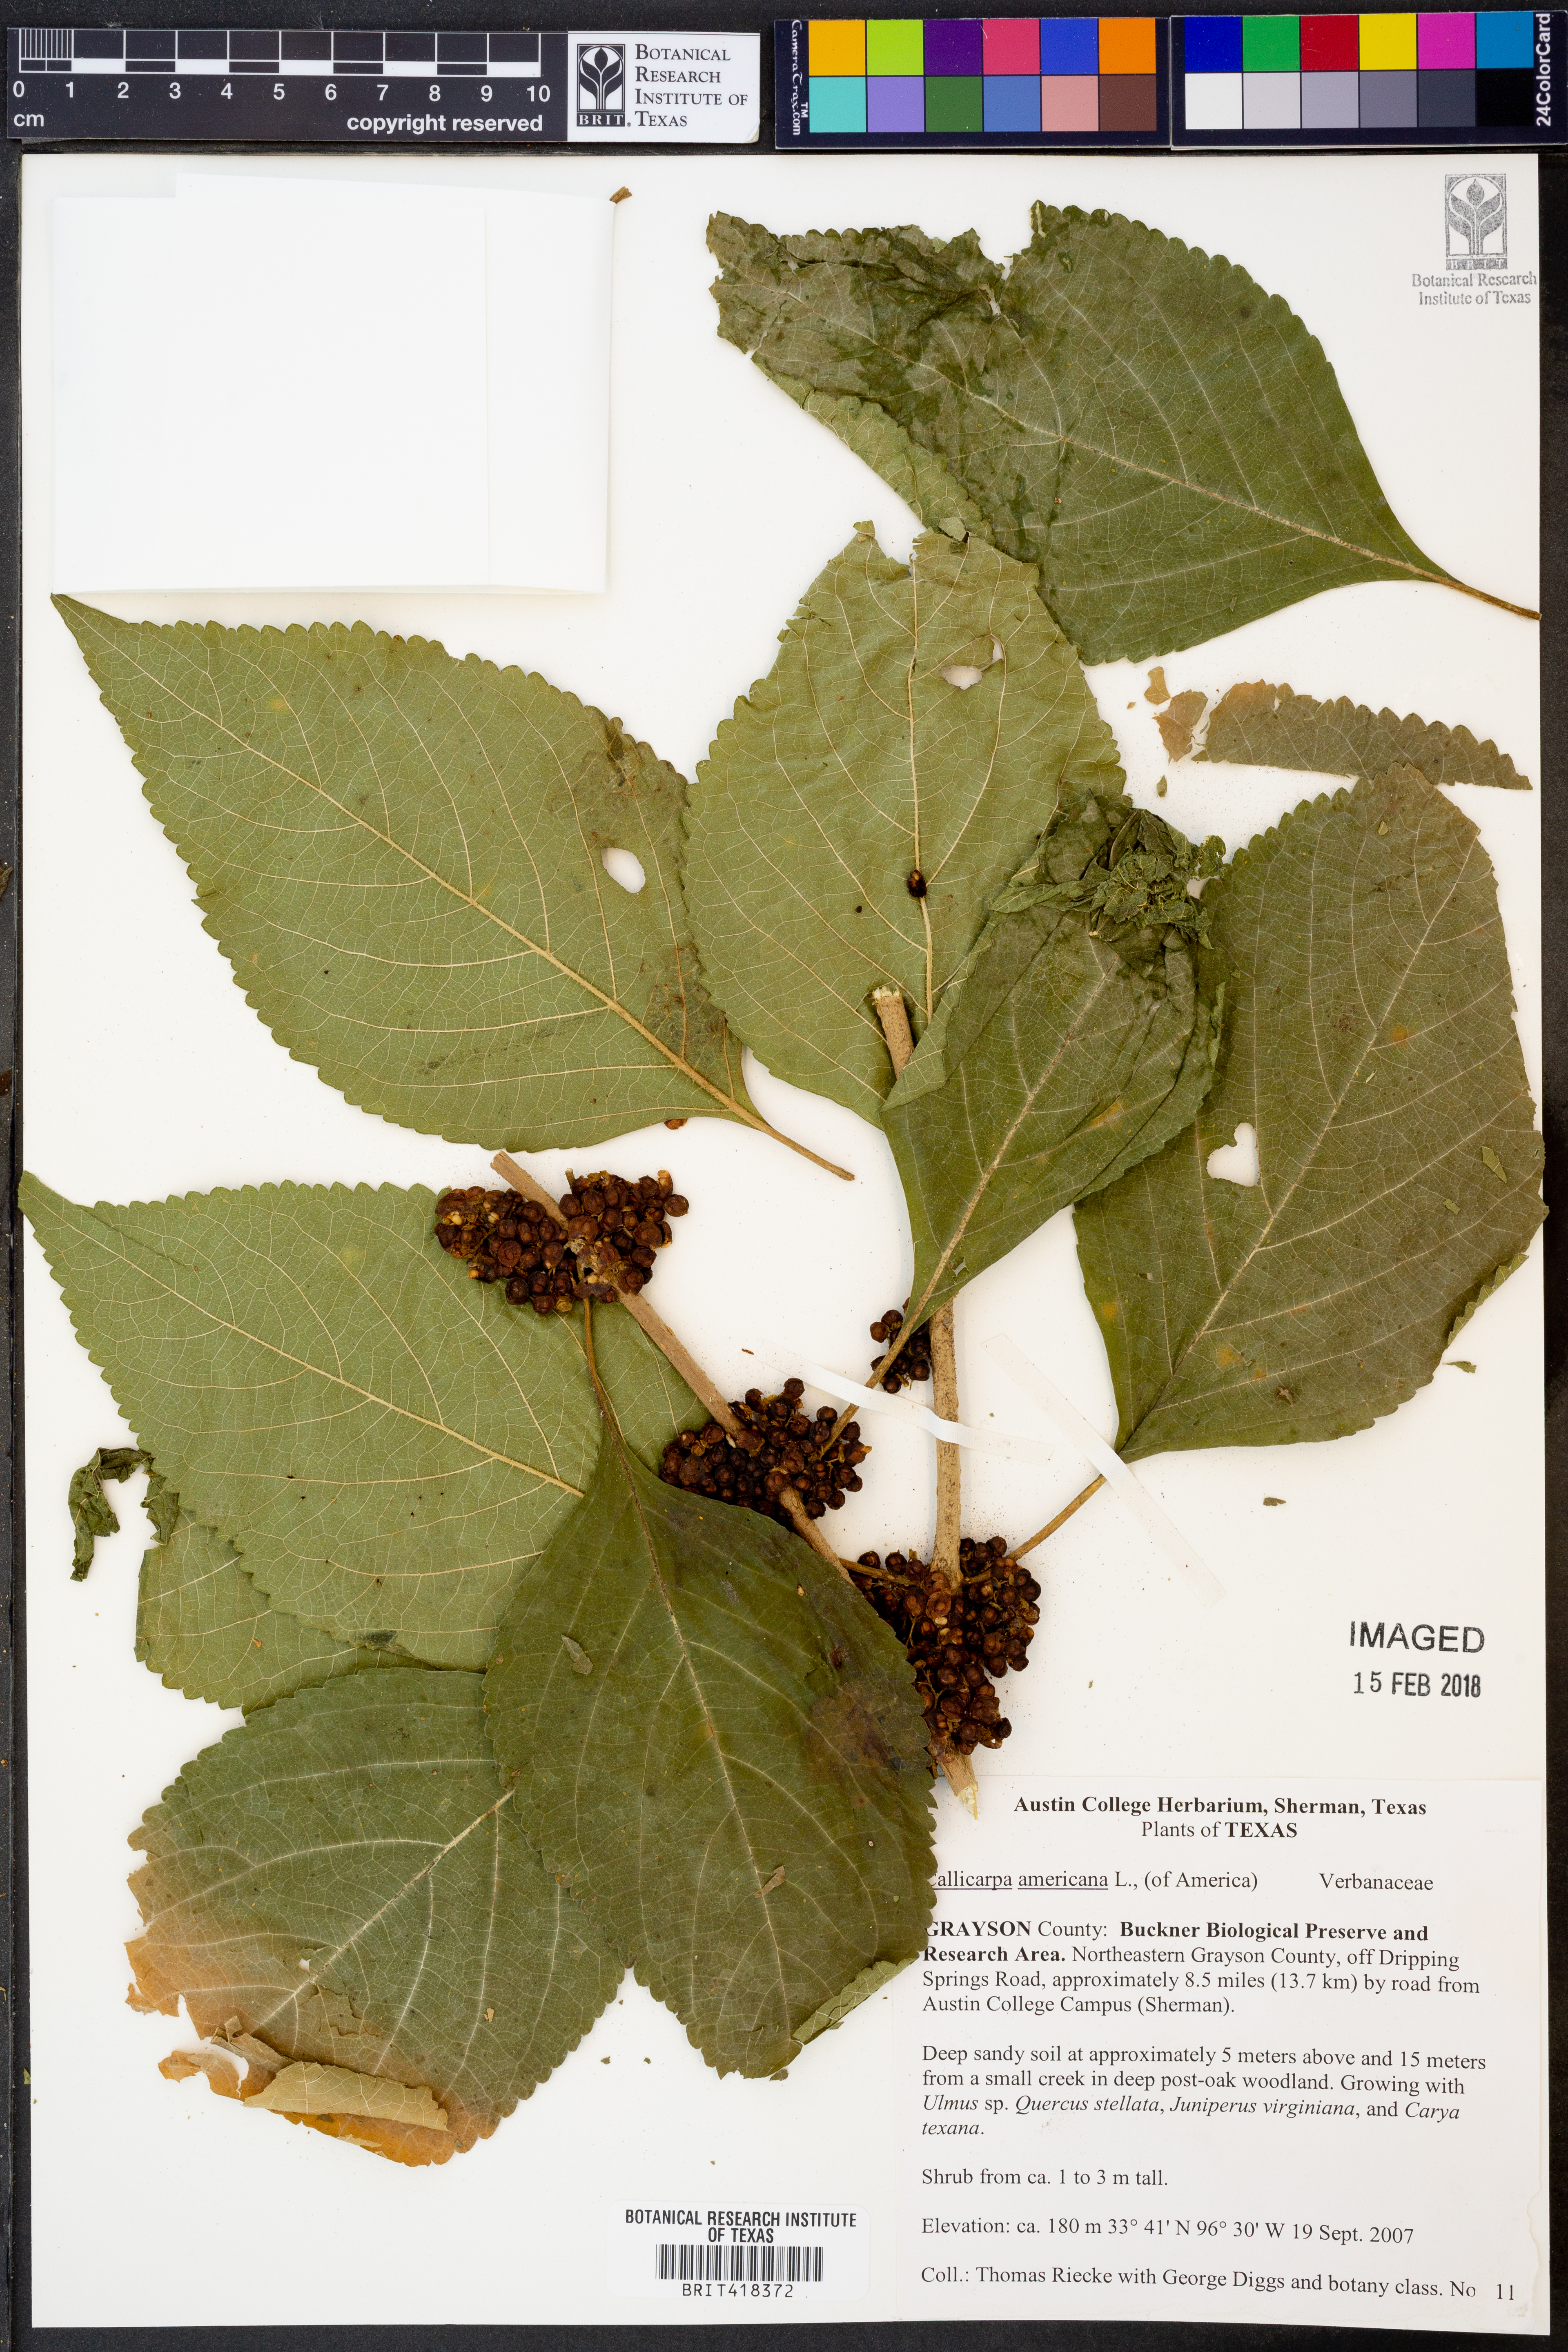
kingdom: Plantae
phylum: Tracheophyta
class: Magnoliopsida
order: Lamiales
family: Lamiaceae
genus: Callicarpa
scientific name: Callicarpa americana
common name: American beautyberry
